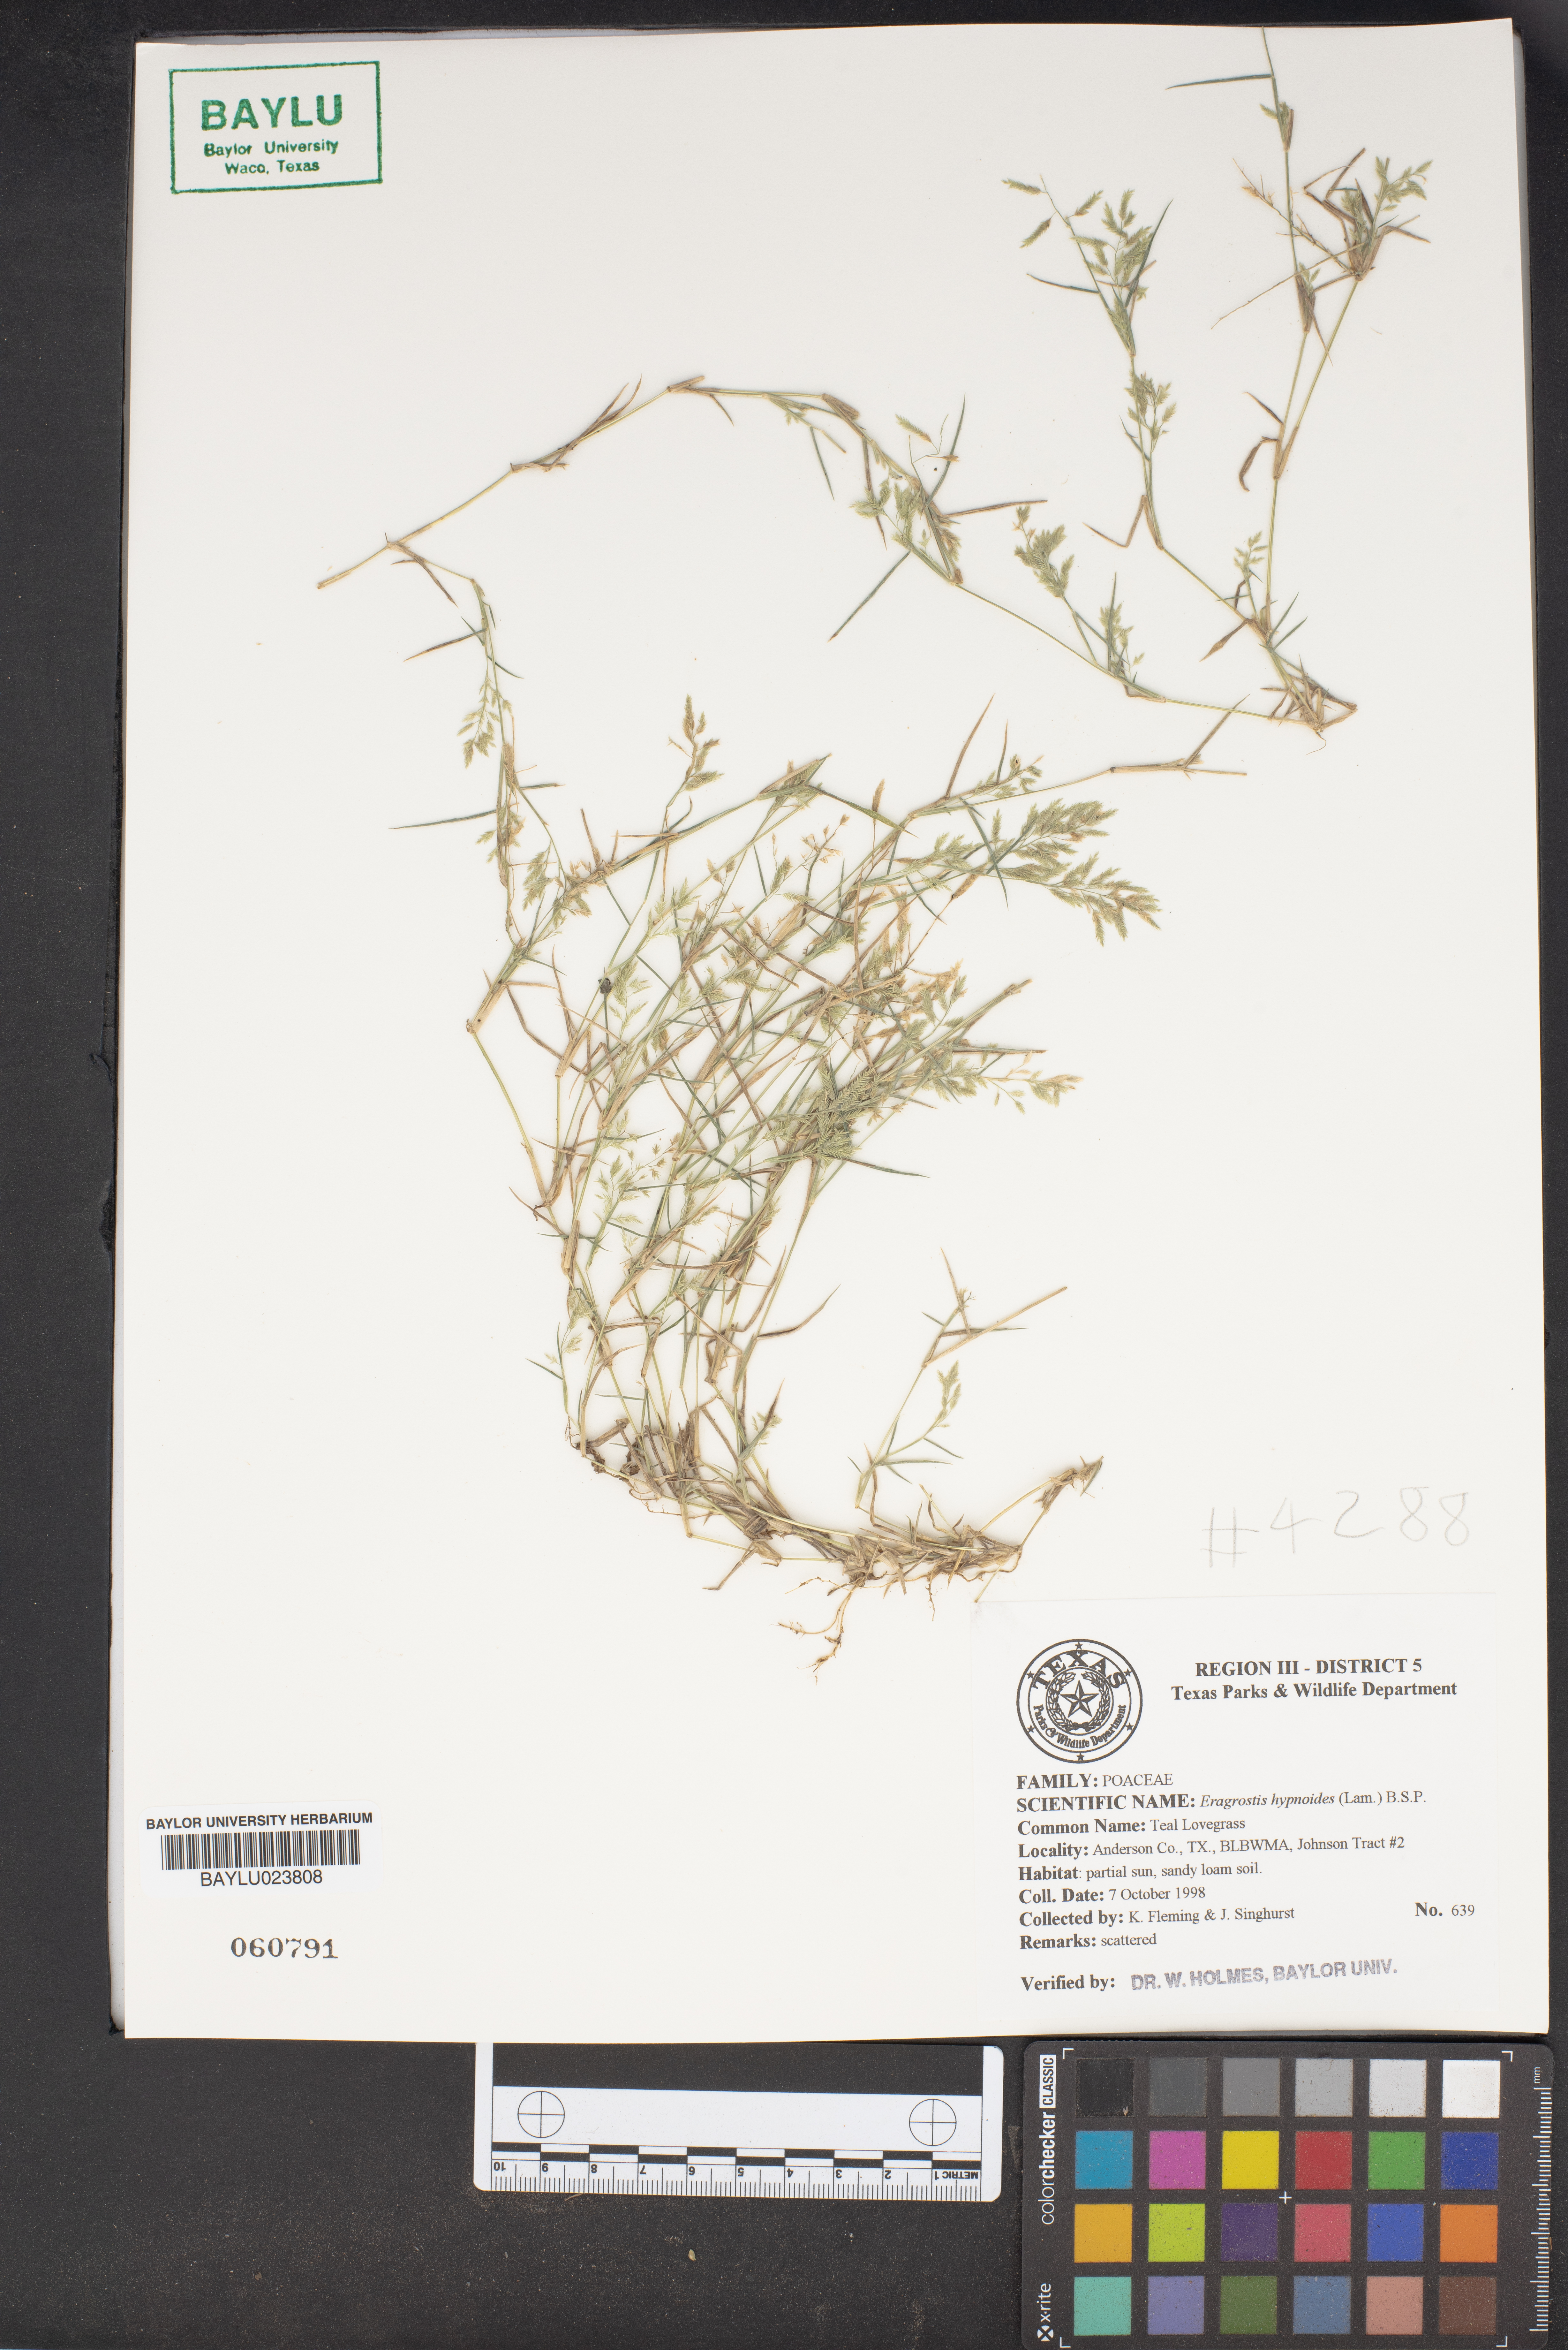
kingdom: Plantae
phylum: Tracheophyta
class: Liliopsida
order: Poales
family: Poaceae
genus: Eragrostis
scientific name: Eragrostis hypnoides
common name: Creeping love grass
